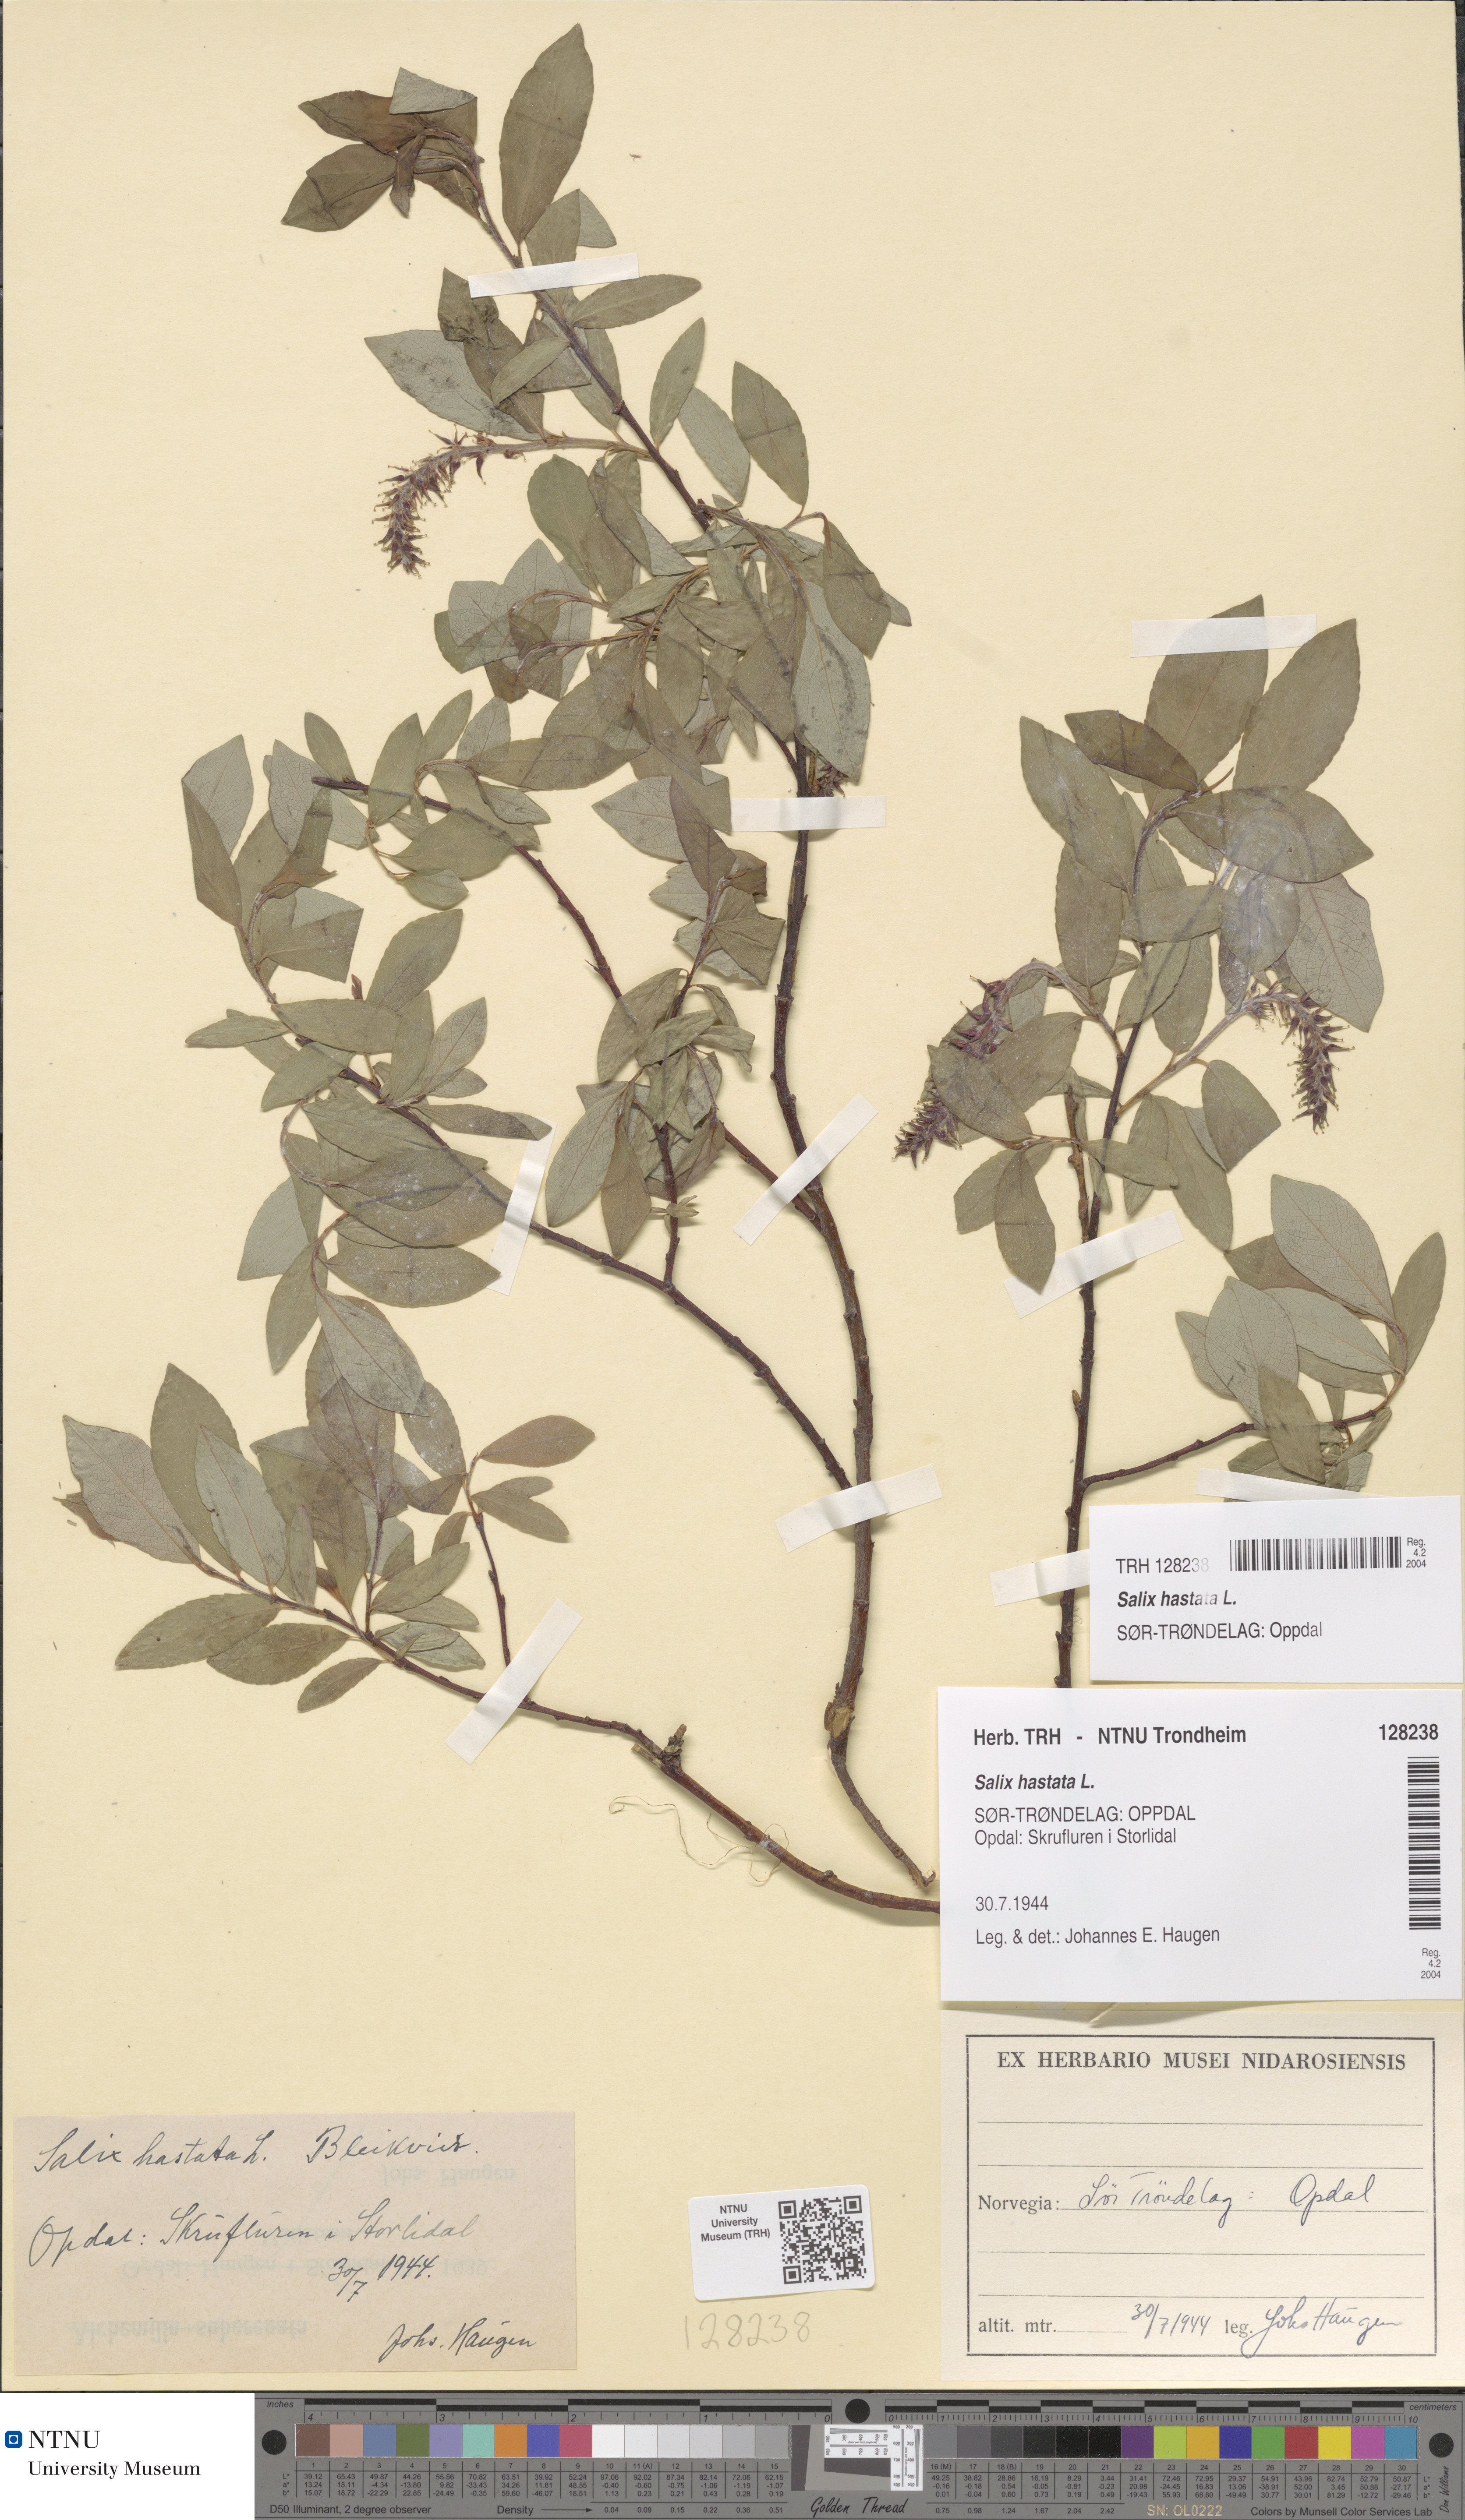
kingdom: Plantae
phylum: Tracheophyta
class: Magnoliopsida
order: Malpighiales
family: Salicaceae
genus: Salix
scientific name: Salix hastata
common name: Halberd willow
